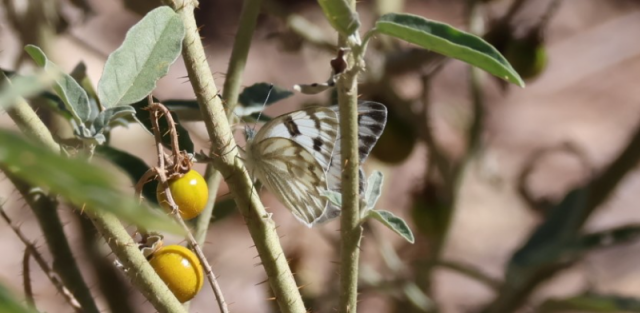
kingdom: Animalia
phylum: Arthropoda
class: Insecta
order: Lepidoptera
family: Pieridae
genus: Pontia
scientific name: Pontia protodice
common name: Checkered White
